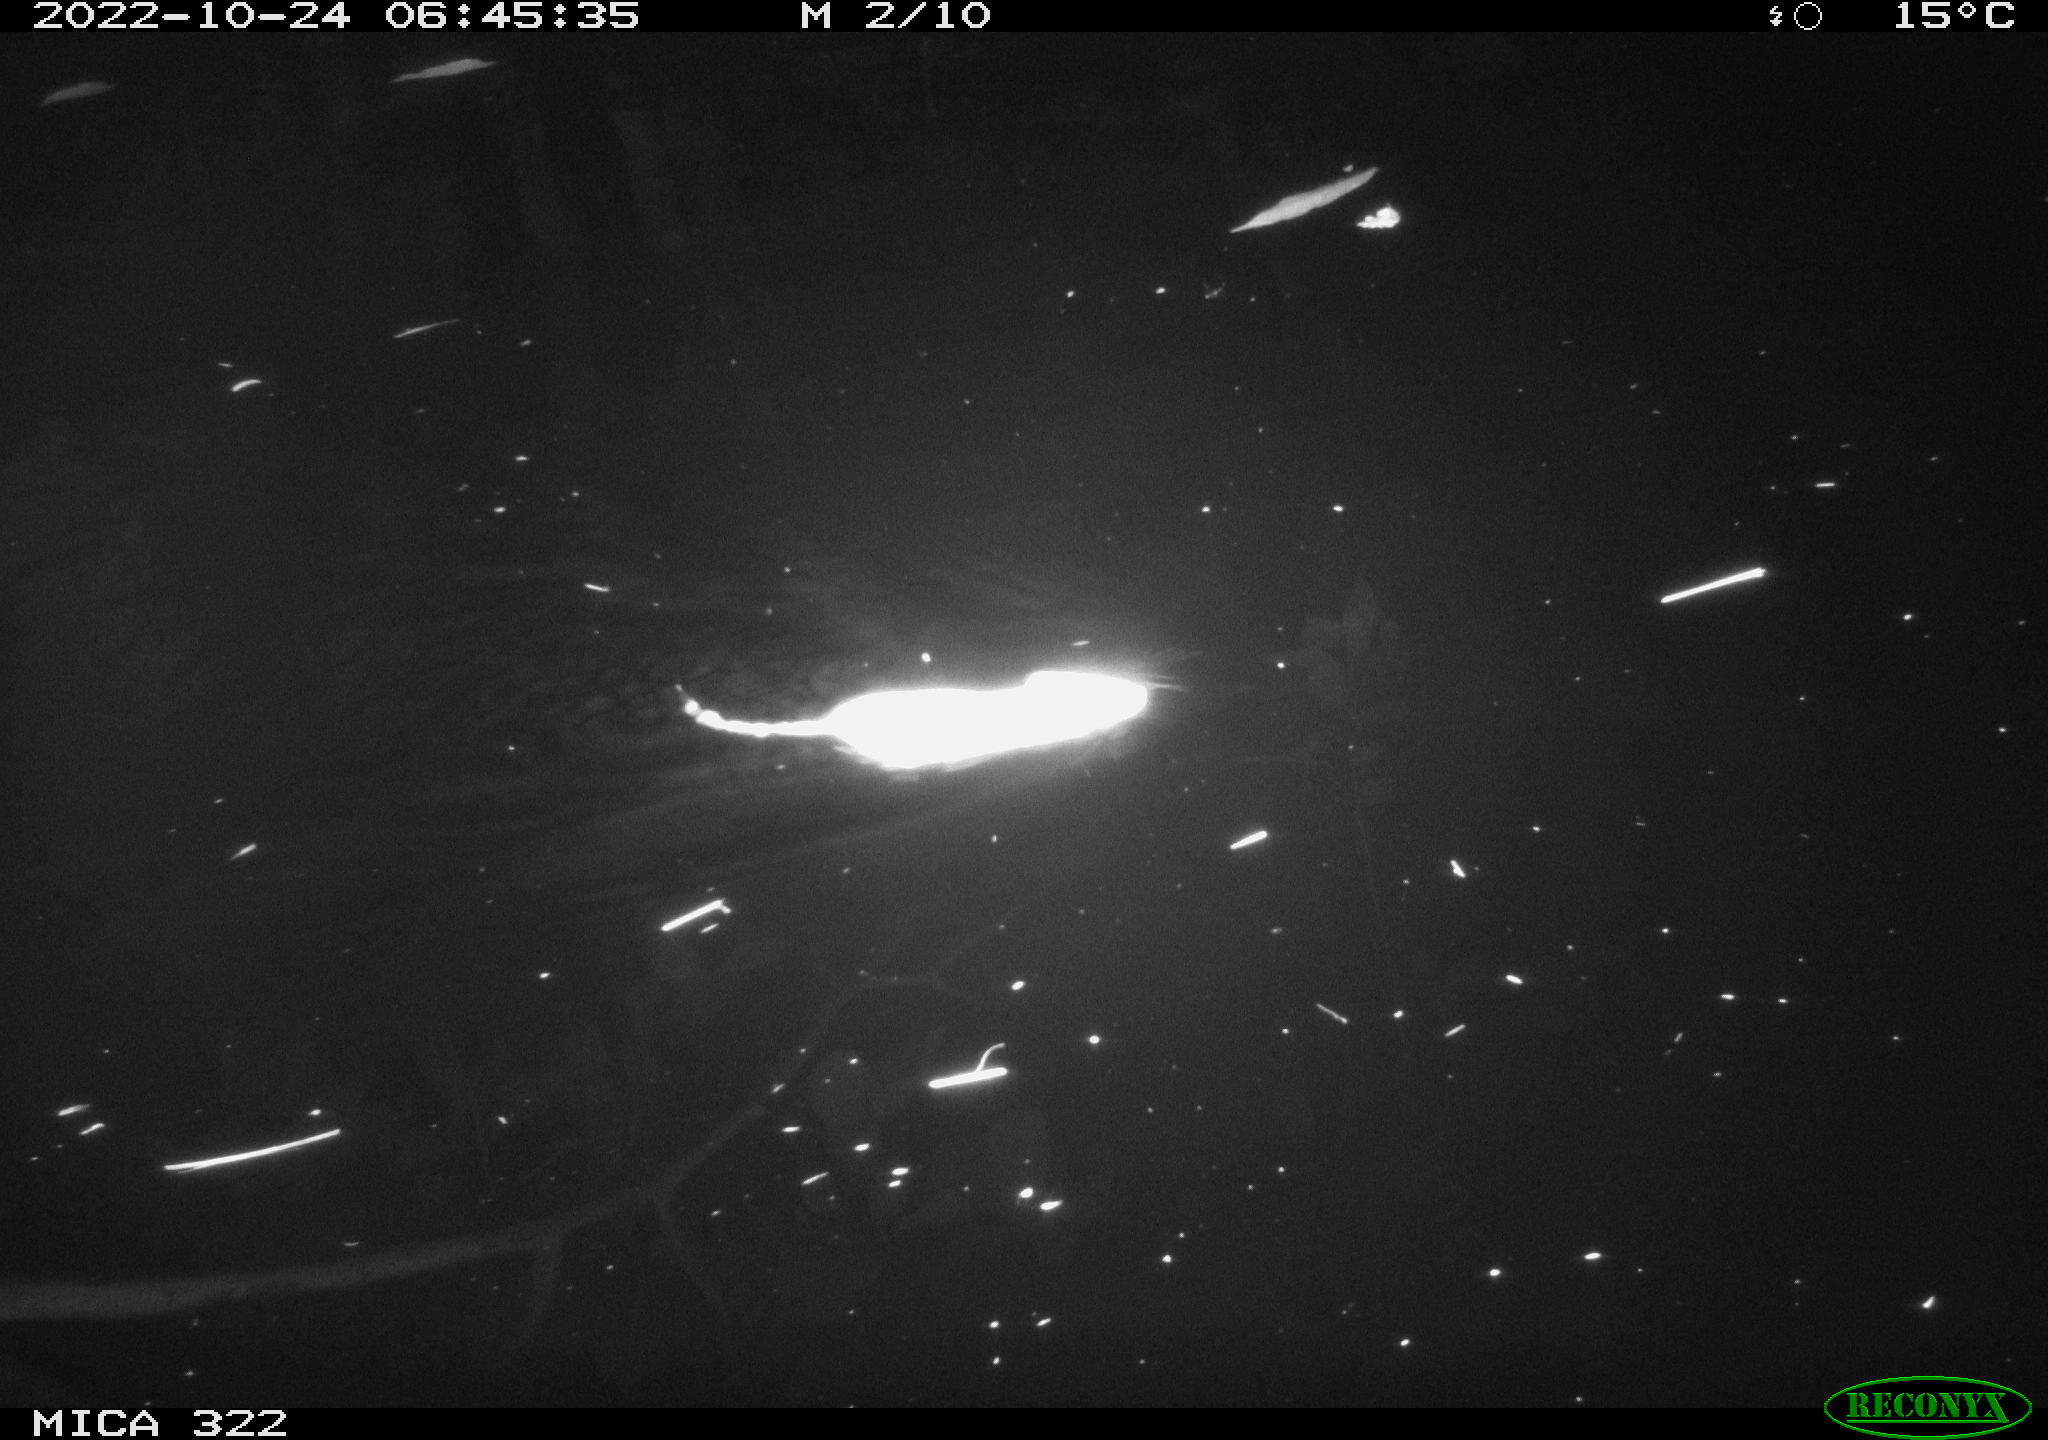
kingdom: Animalia
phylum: Chordata
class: Mammalia
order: Rodentia
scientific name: Rodentia
